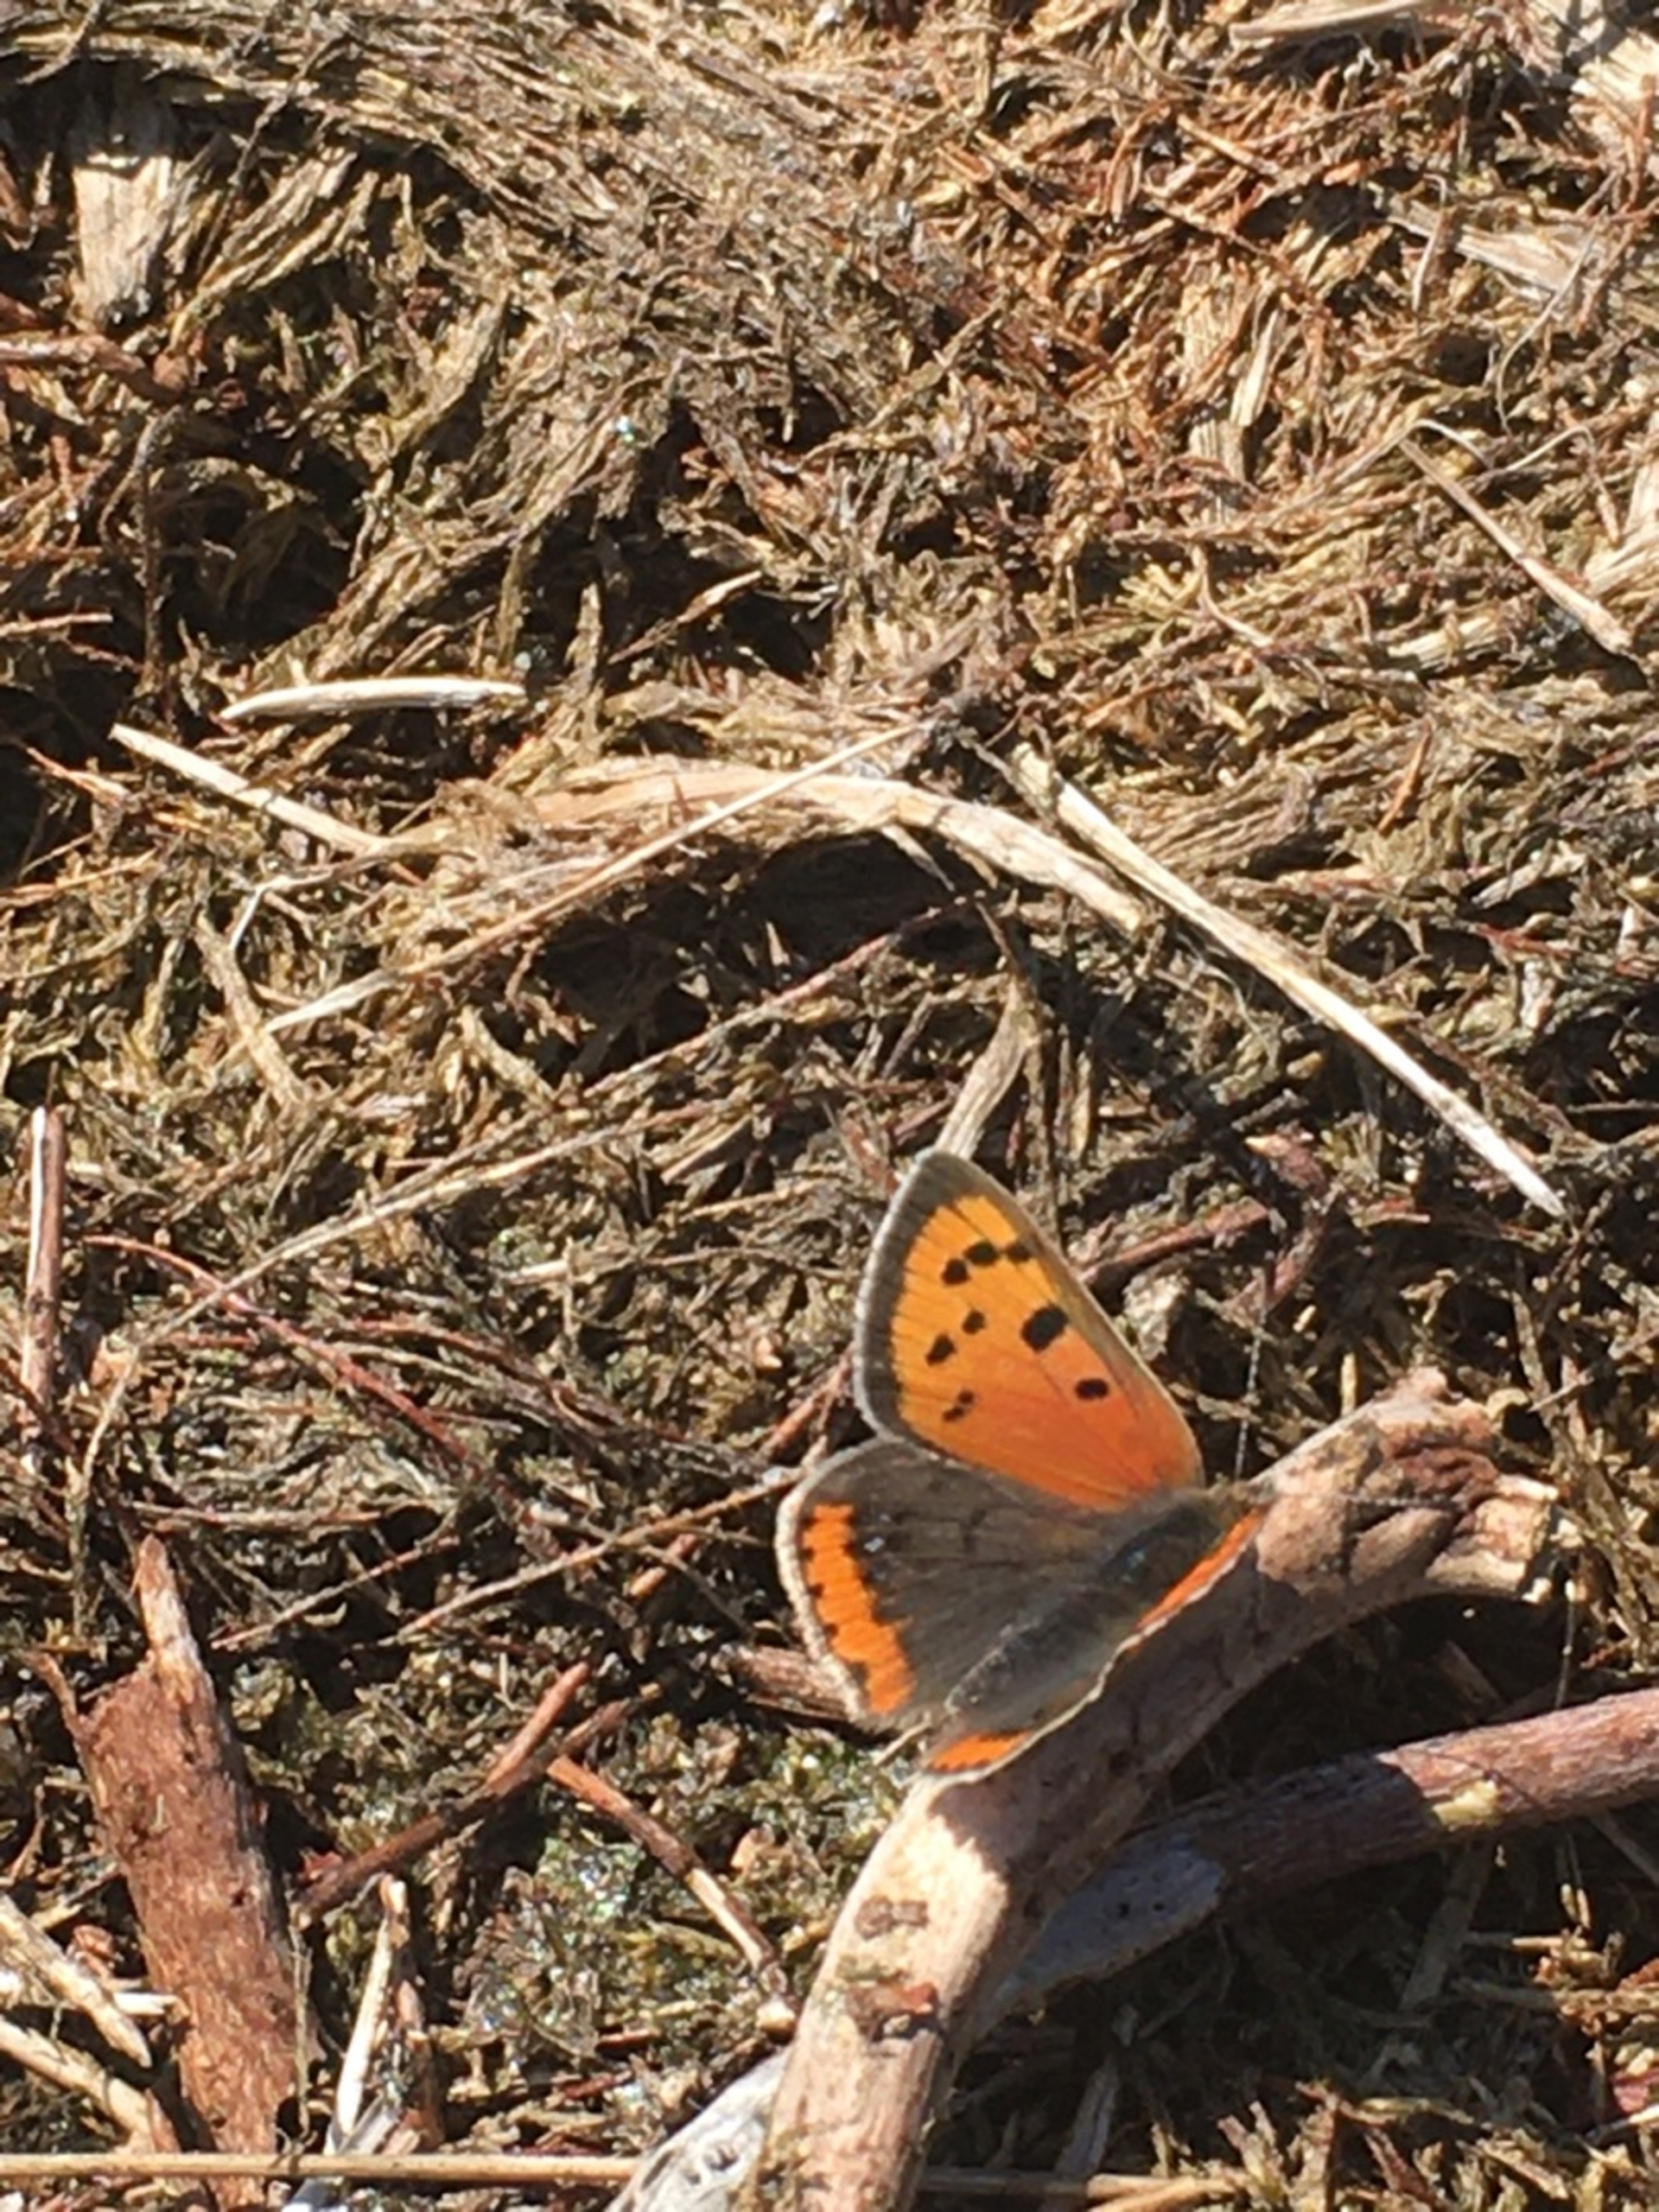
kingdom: Animalia
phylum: Arthropoda
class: Insecta
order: Lepidoptera
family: Lycaenidae
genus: Lycaena
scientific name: Lycaena phlaeas
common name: Lille ildfugl
